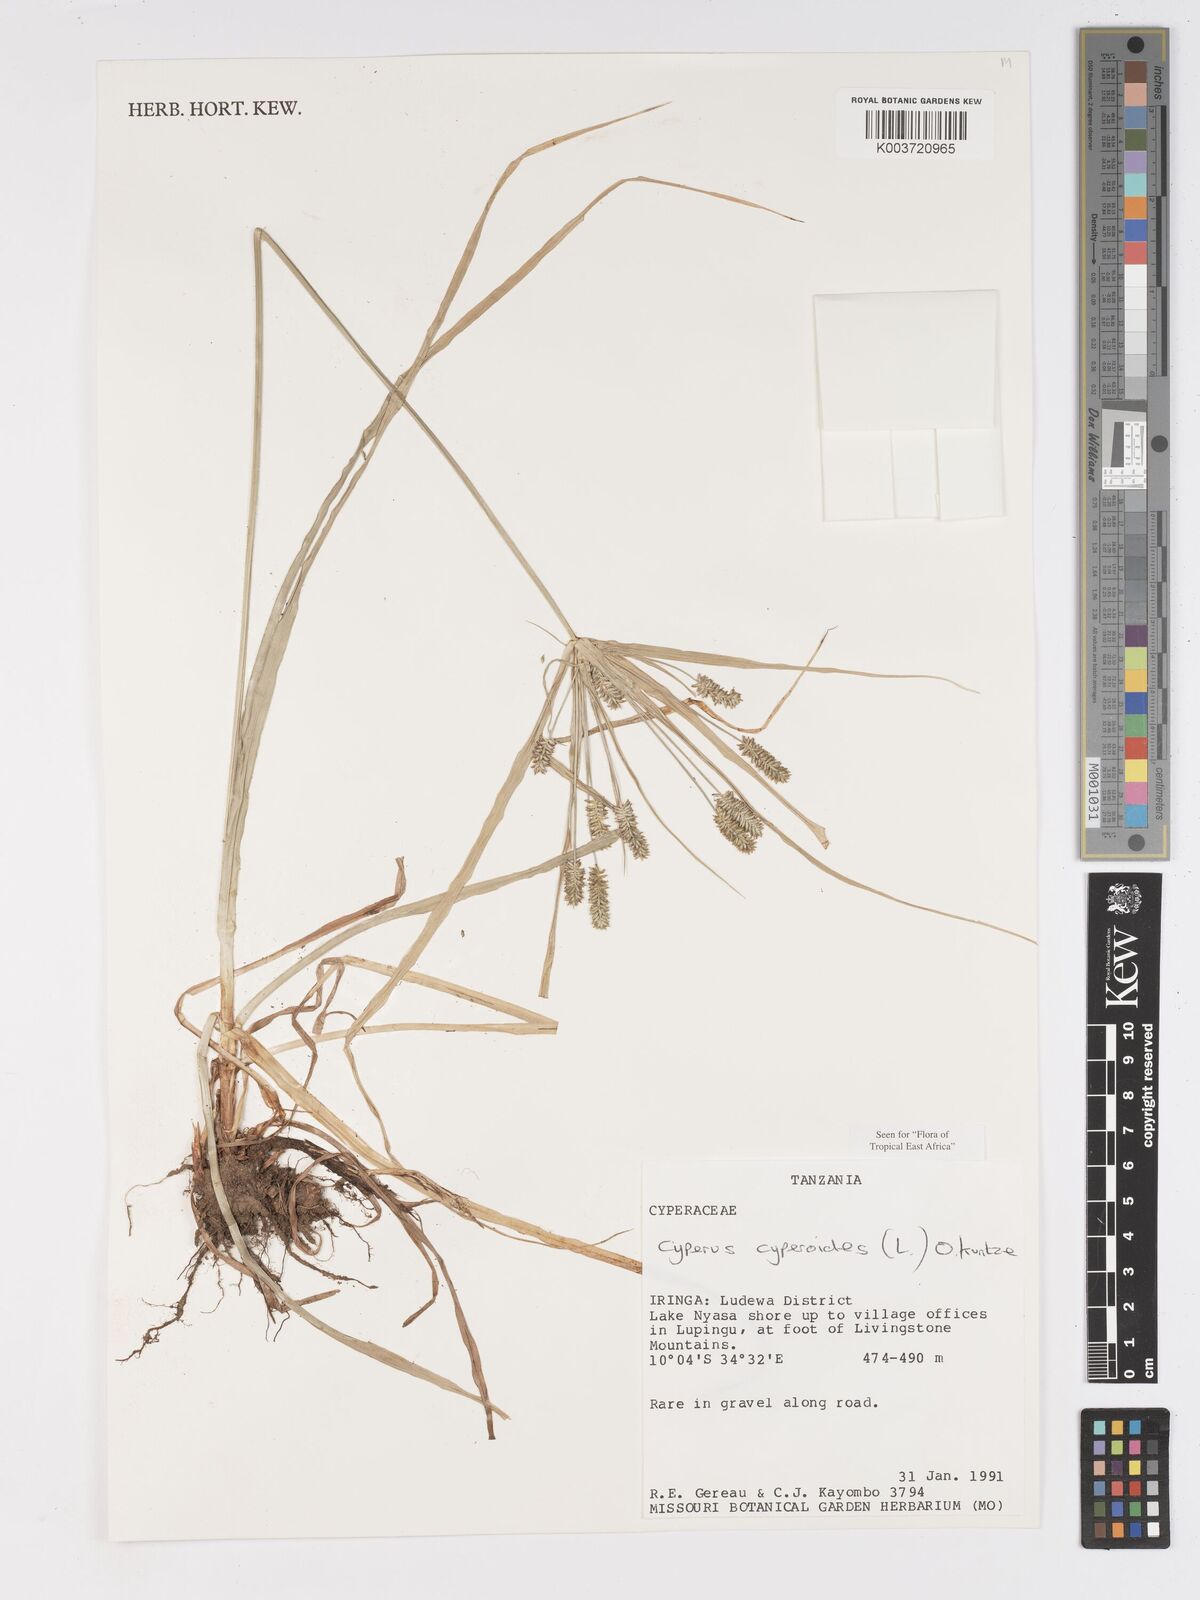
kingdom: Plantae
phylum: Tracheophyta
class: Liliopsida
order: Poales
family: Cyperaceae
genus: Cyperus
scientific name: Cyperus cyperoides
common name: Pacific island flat sedge
